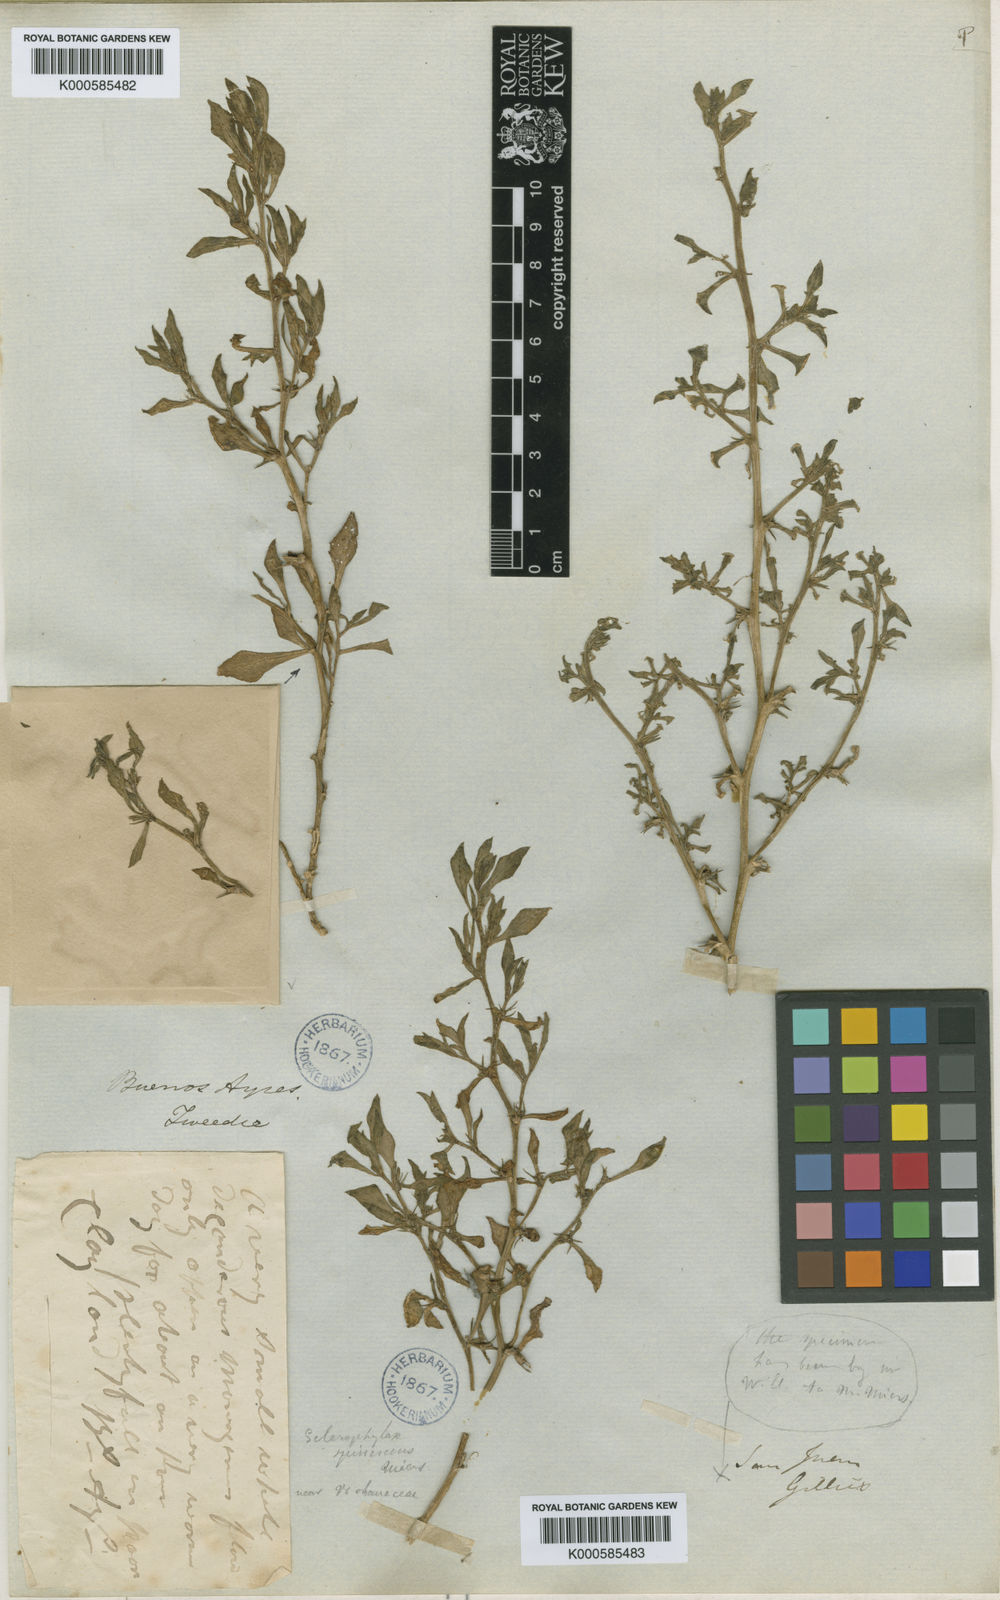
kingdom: Plantae
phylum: Tracheophyta
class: Magnoliopsida
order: Solanales
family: Solanaceae
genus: Sclerophylax
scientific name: Sclerophylax spinescens
